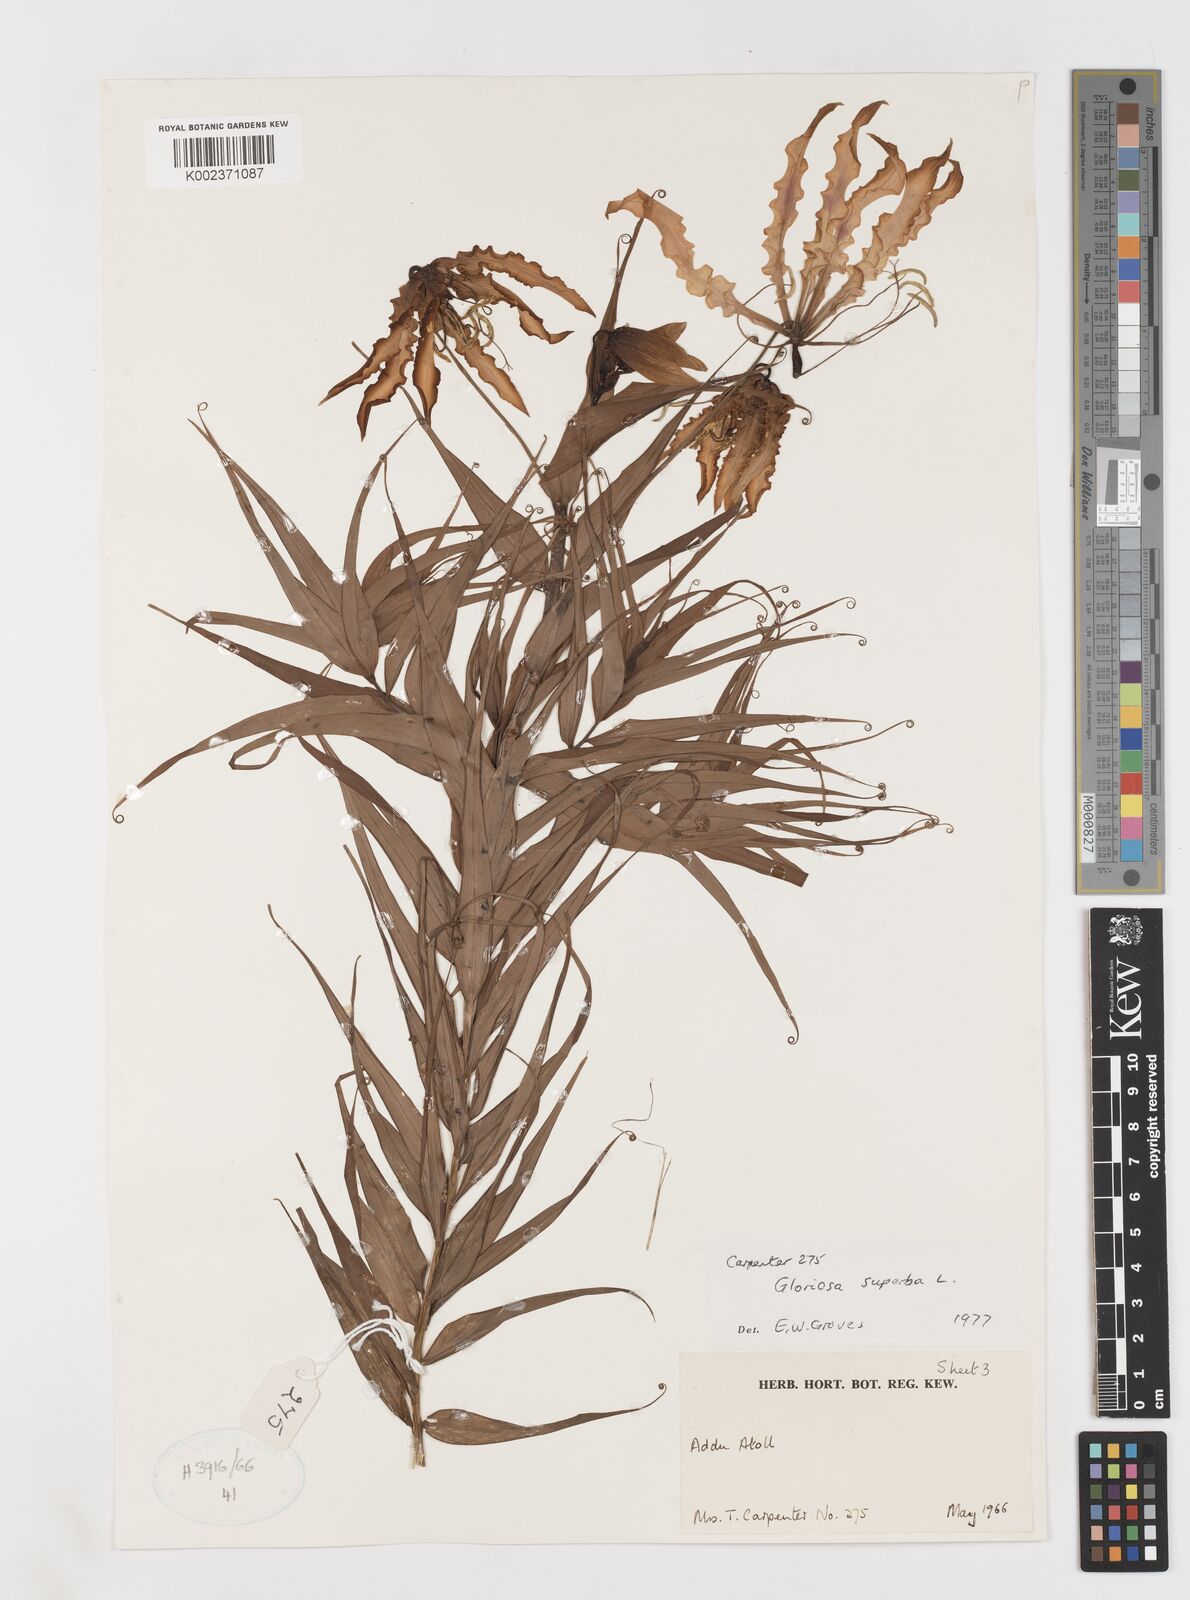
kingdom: Plantae
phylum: Tracheophyta
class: Liliopsida
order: Liliales
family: Colchicaceae
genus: Gloriosa
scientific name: Gloriosa superba
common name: Flame lily
